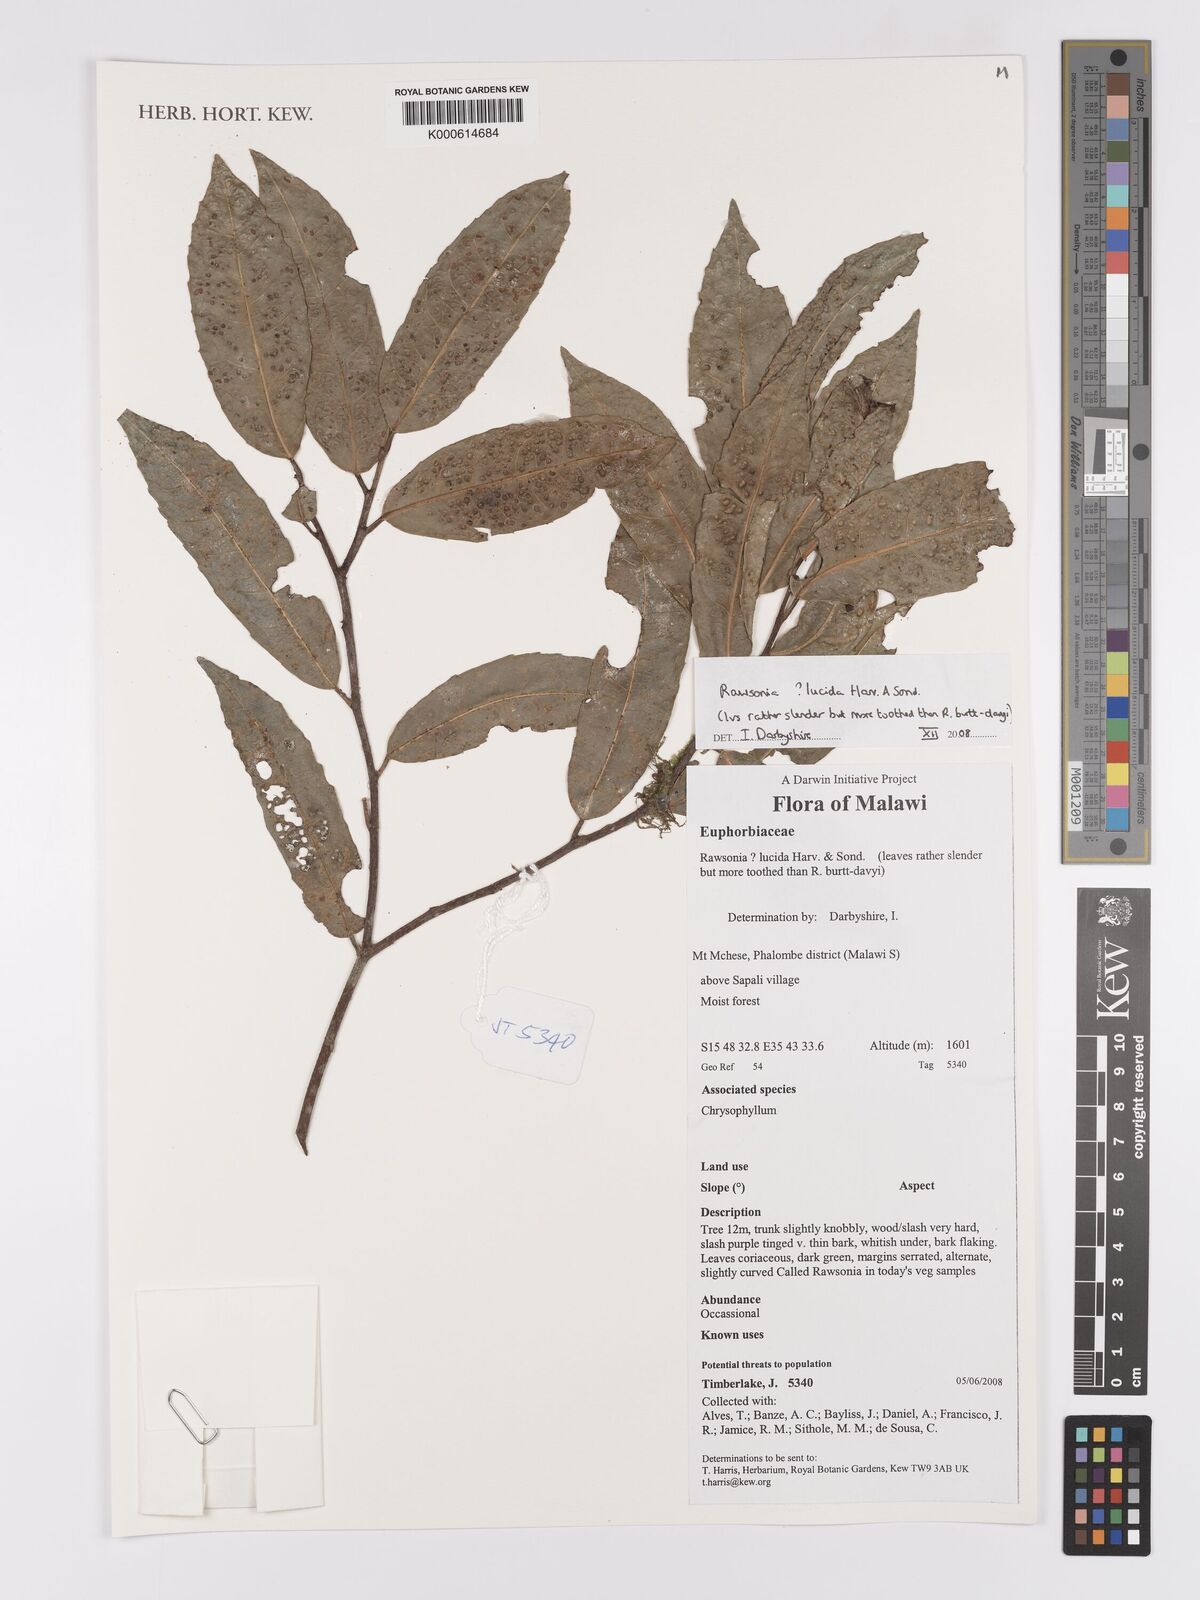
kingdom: Plantae
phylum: Tracheophyta
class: Magnoliopsida
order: Malpighiales
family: Achariaceae
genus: Rawsonia
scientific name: Rawsonia lucida
